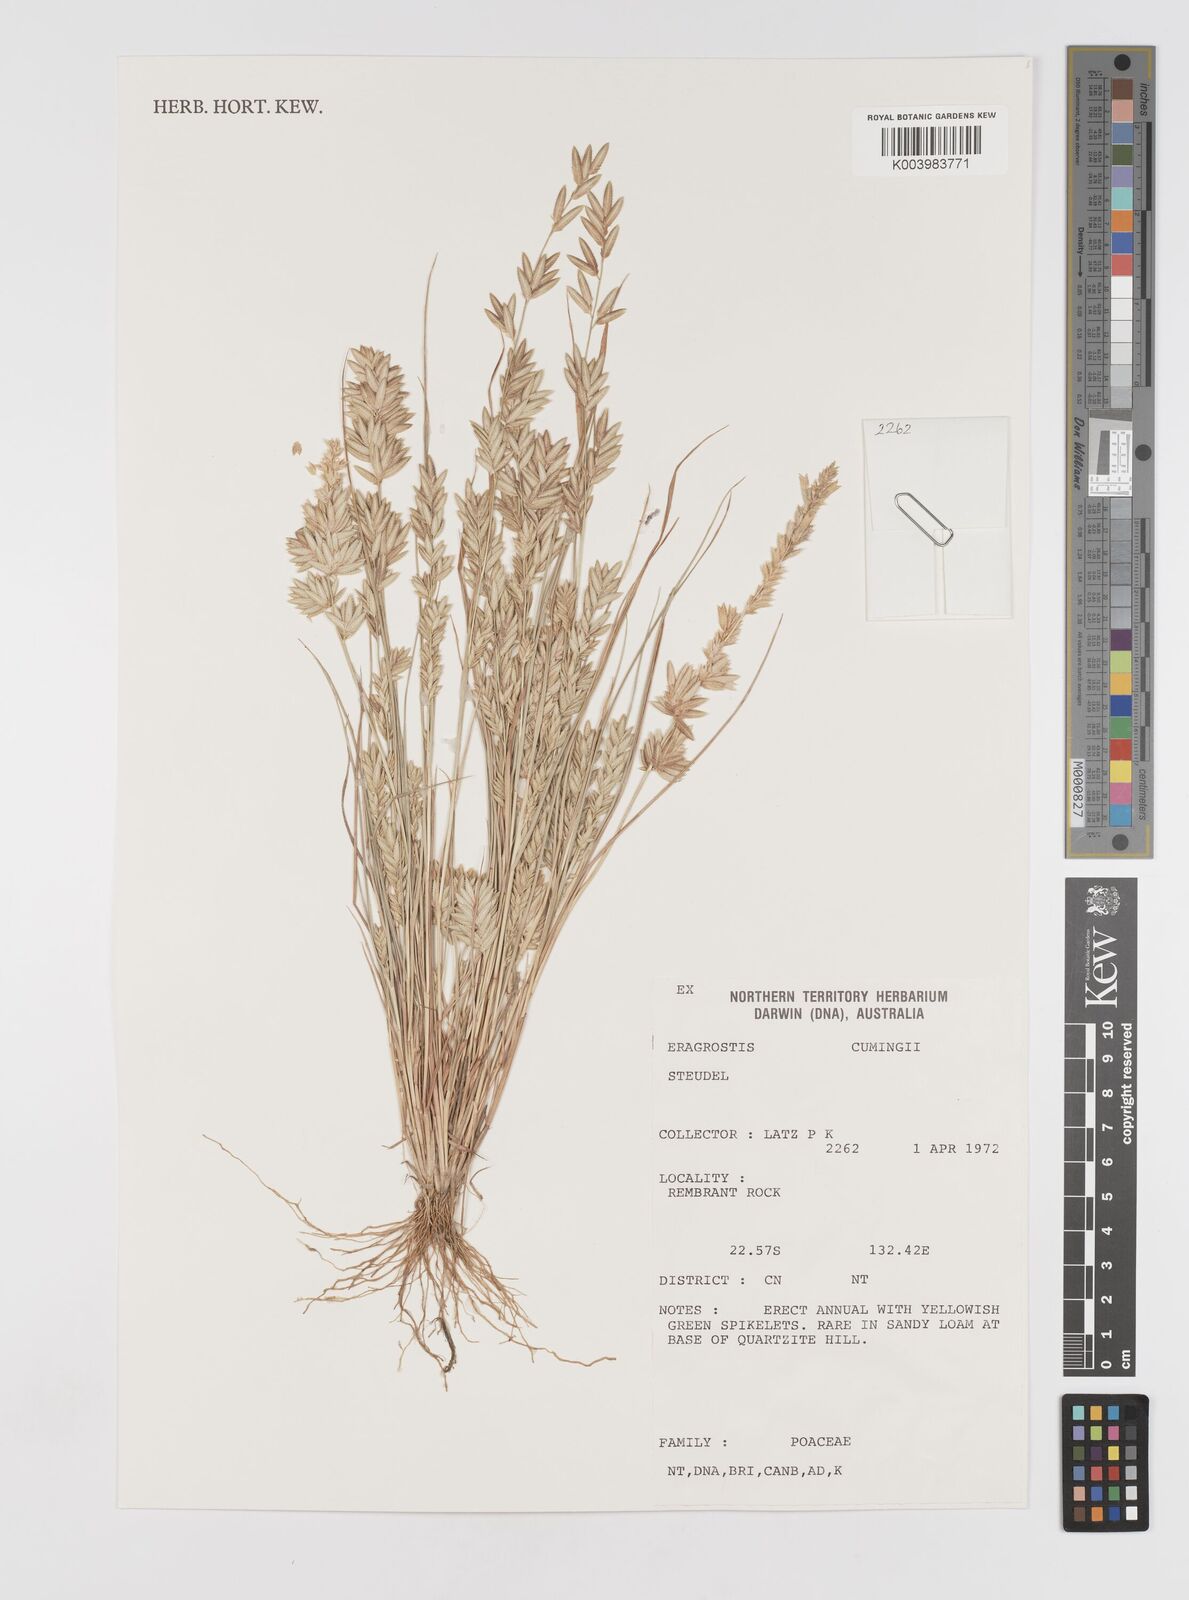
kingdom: Plantae
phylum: Tracheophyta
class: Liliopsida
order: Poales
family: Poaceae
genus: Eragrostis
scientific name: Eragrostis cumingii
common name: Cuming's lovegrass
